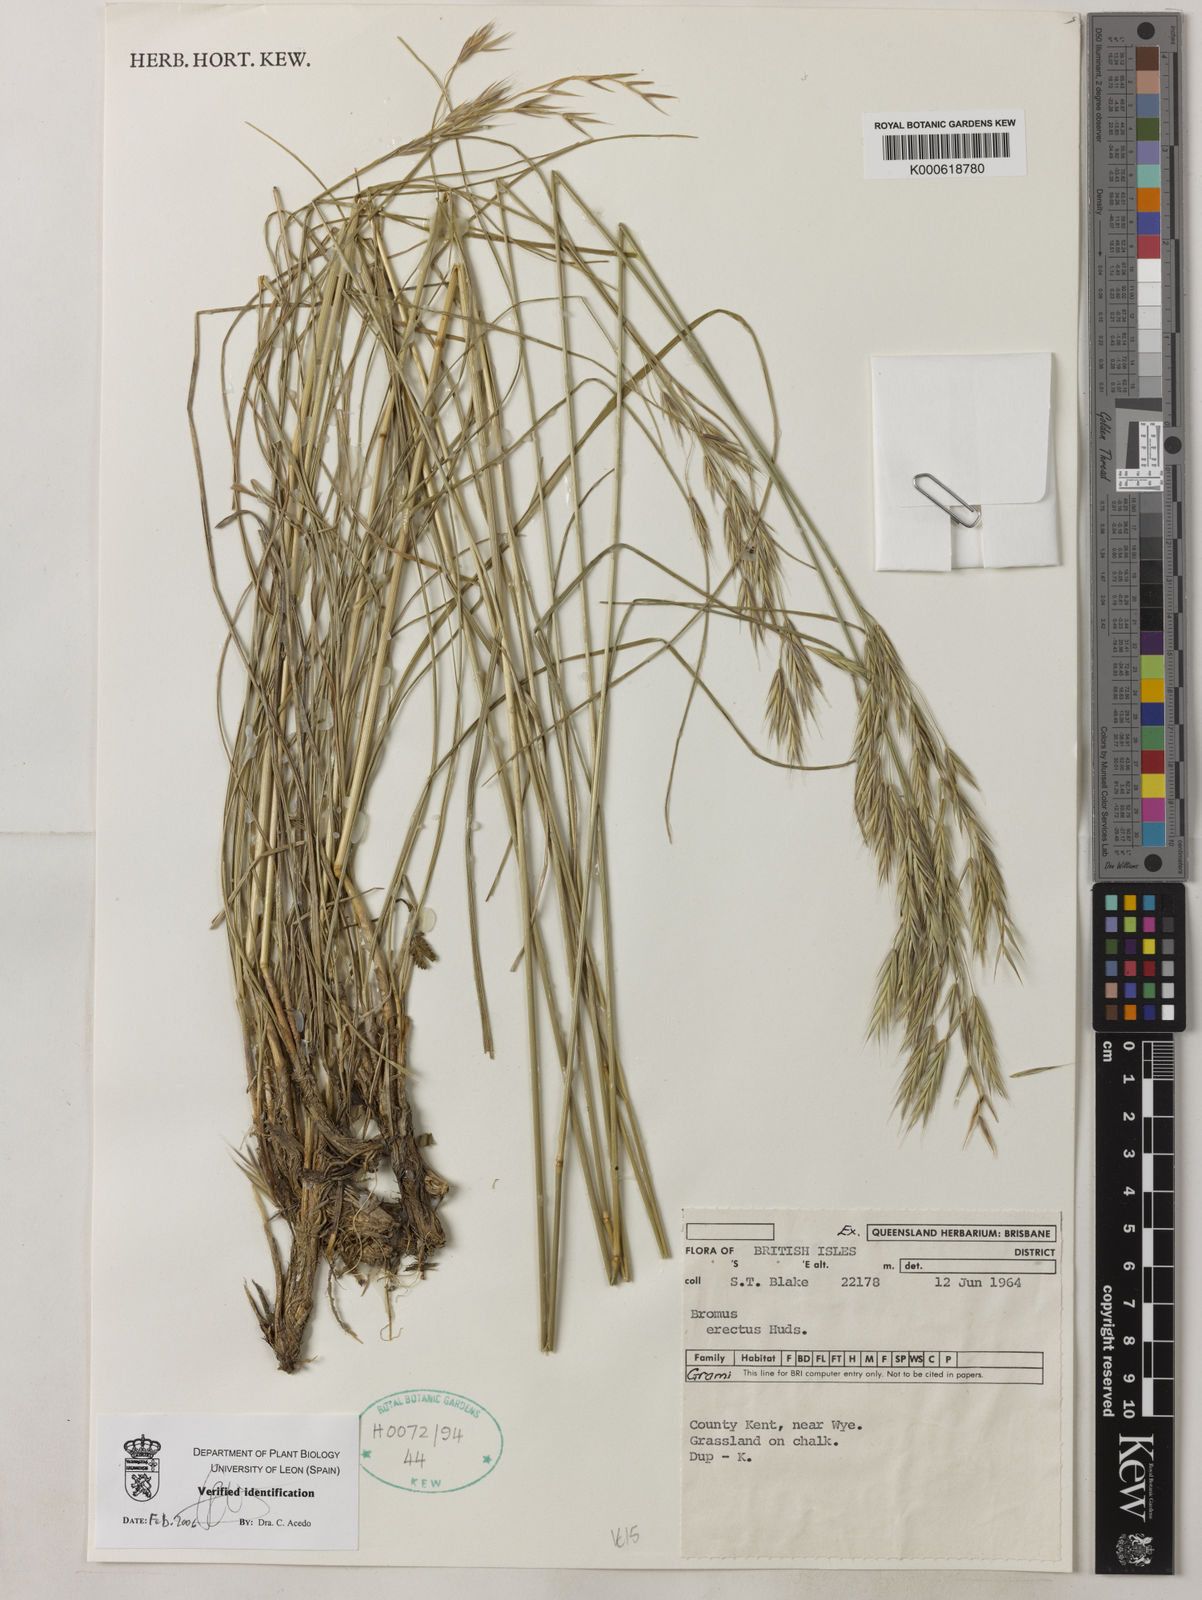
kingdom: Plantae
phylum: Tracheophyta
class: Liliopsida
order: Poales
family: Poaceae
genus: Bromus
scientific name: Bromus erectus
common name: Erect brome
